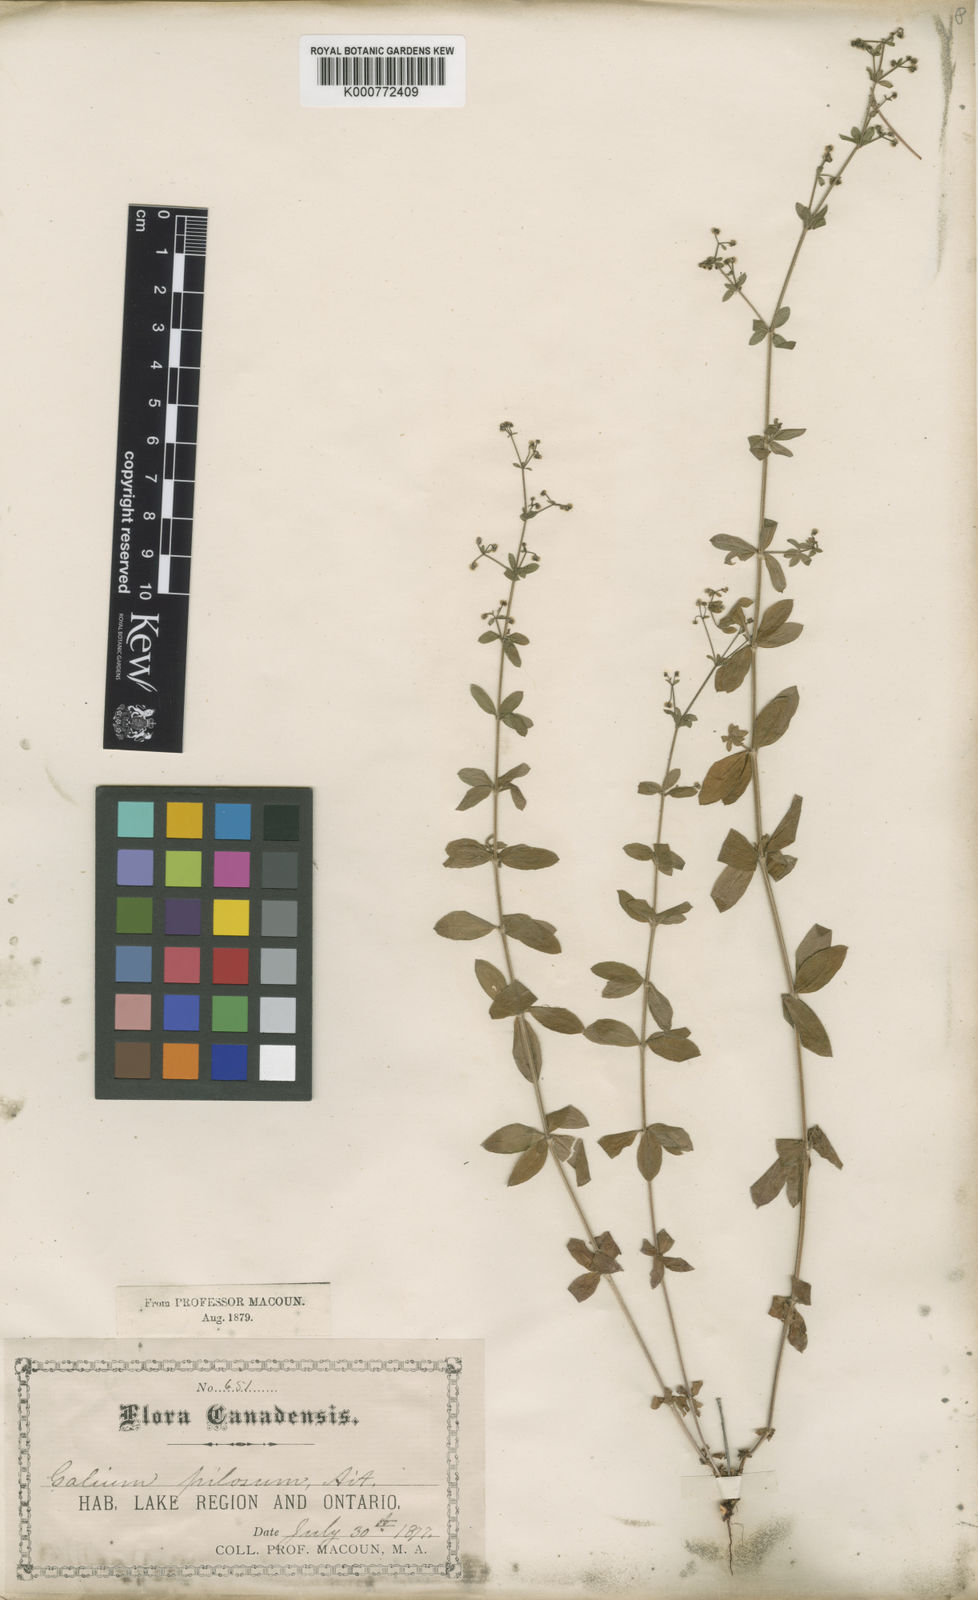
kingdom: Plantae
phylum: Tracheophyta
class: Magnoliopsida
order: Gentianales
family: Rubiaceae
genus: Galium
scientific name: Galium pilosum
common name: Hairy bedstraw
